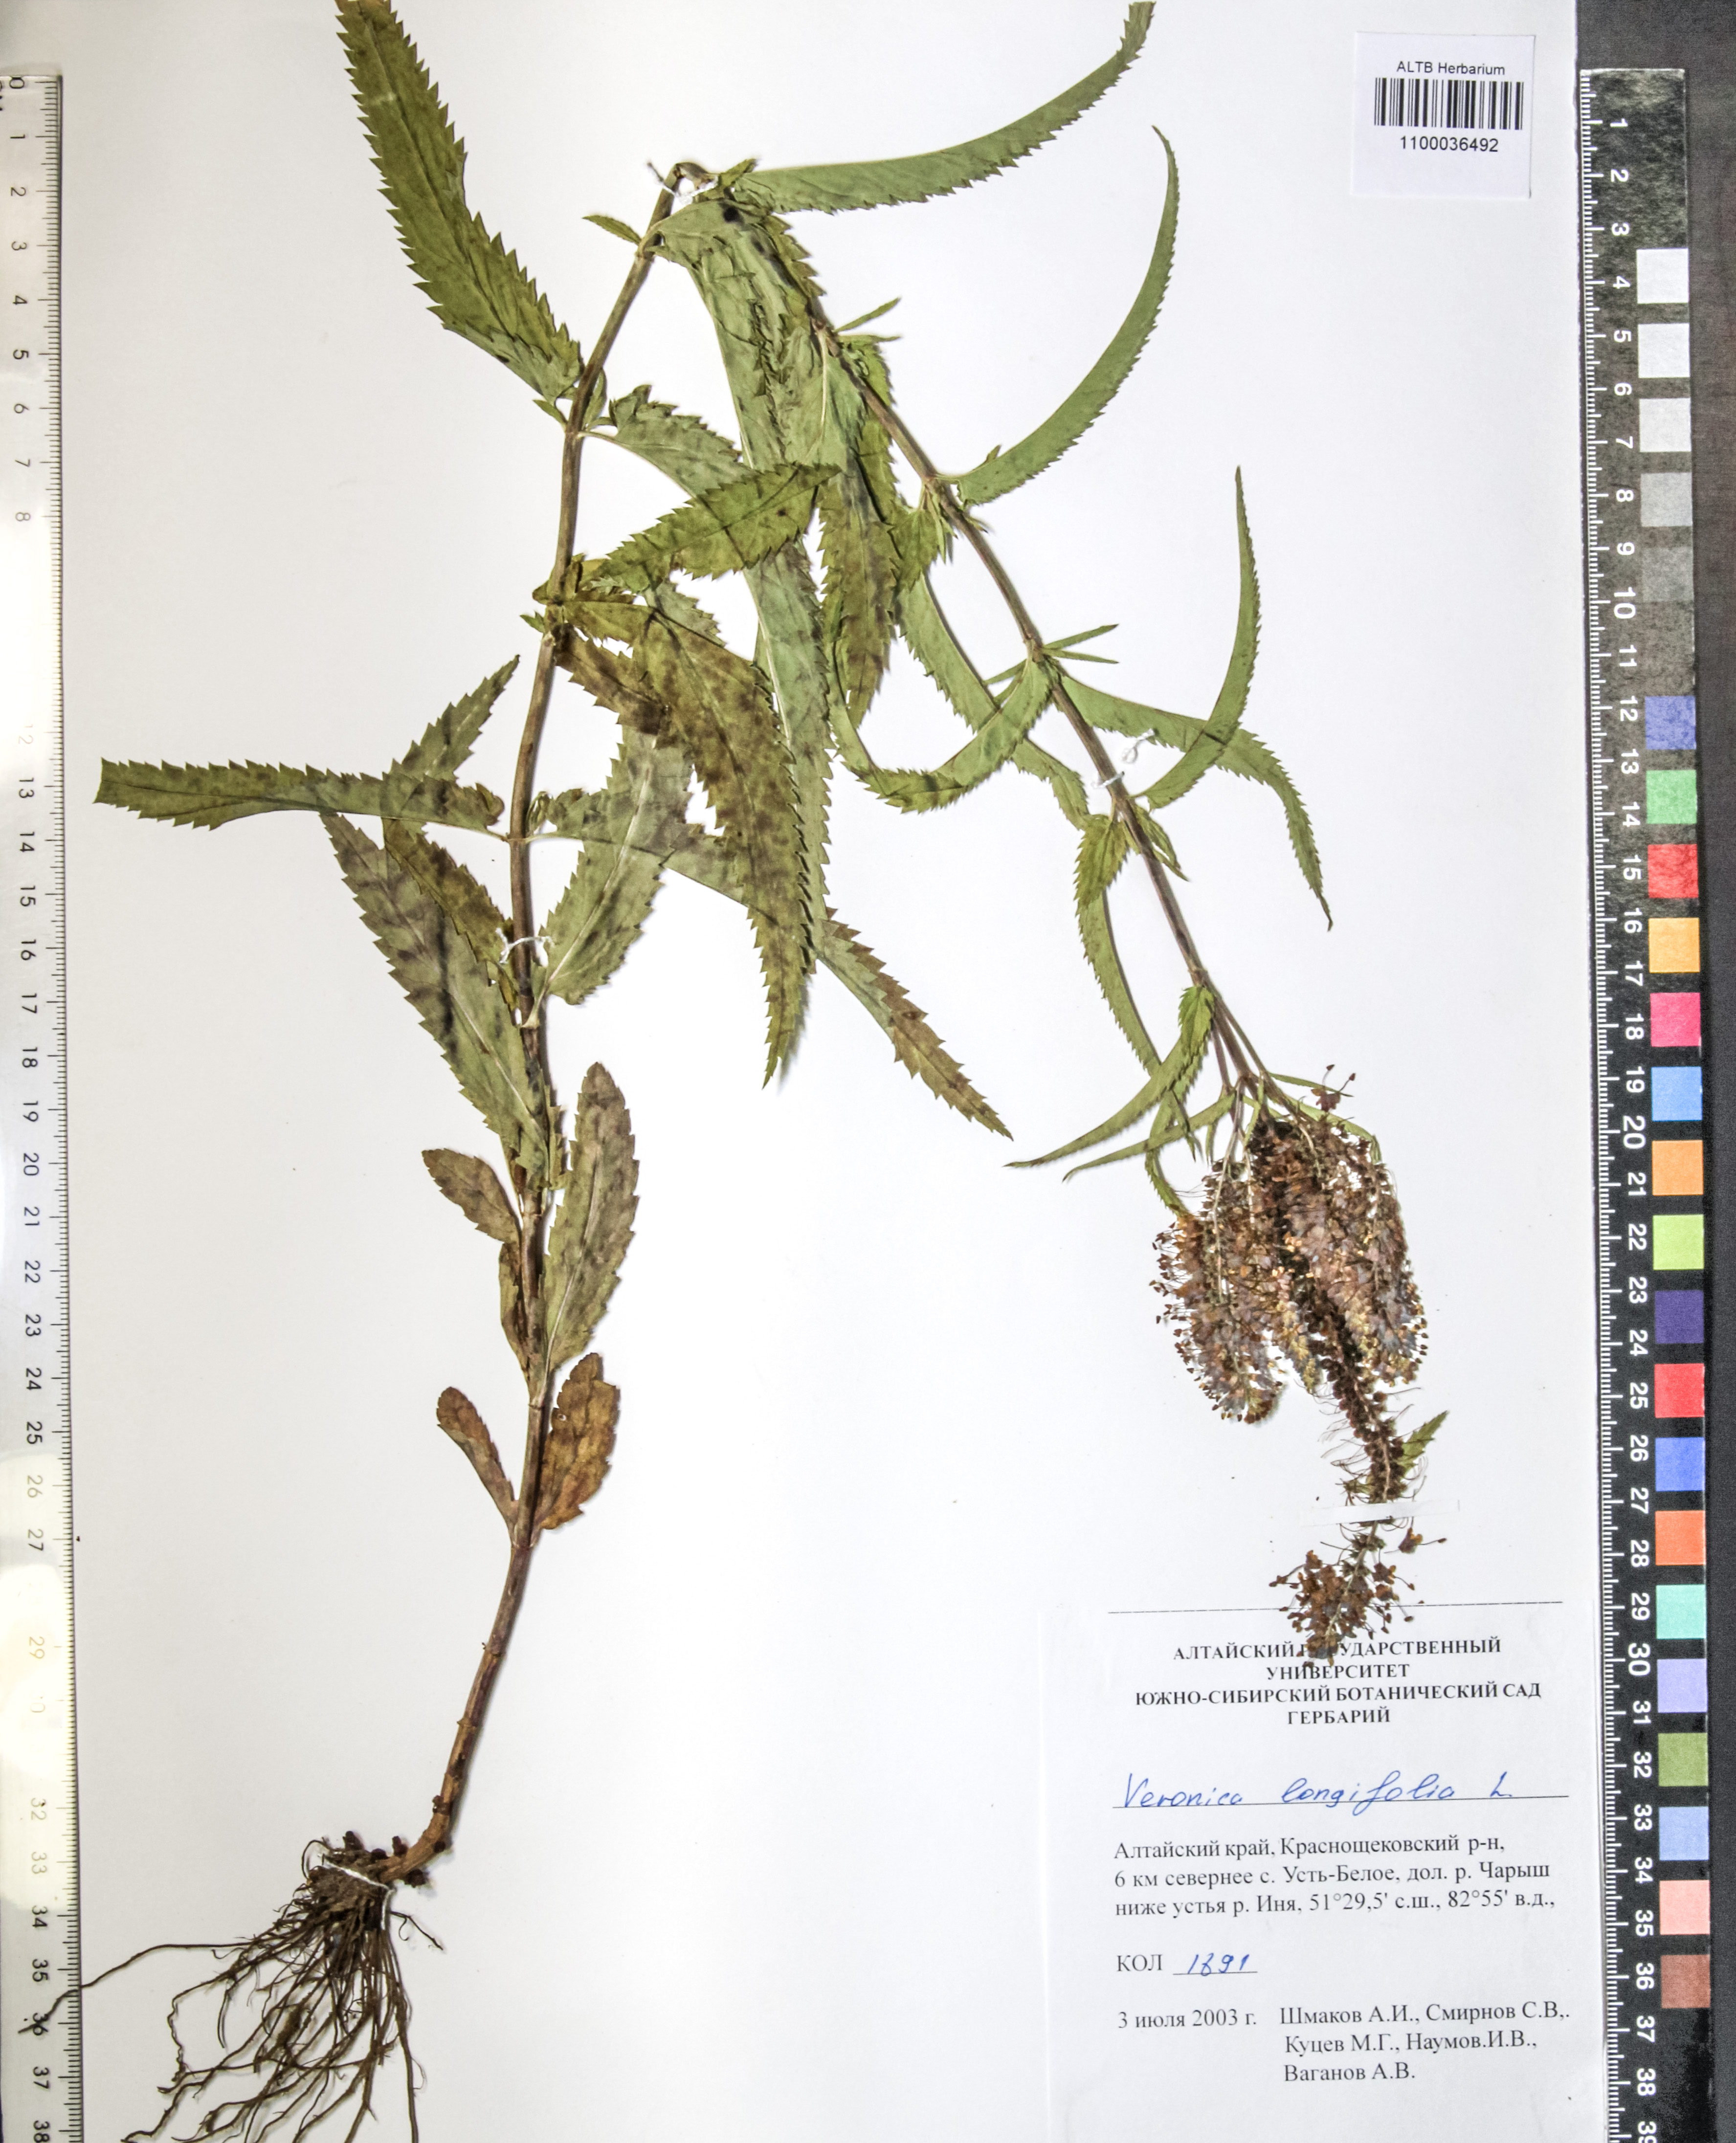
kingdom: Plantae
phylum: Tracheophyta
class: Magnoliopsida
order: Lamiales
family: Plantaginaceae
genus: Veronica
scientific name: Veronica longifolia
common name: Garden speedwell
